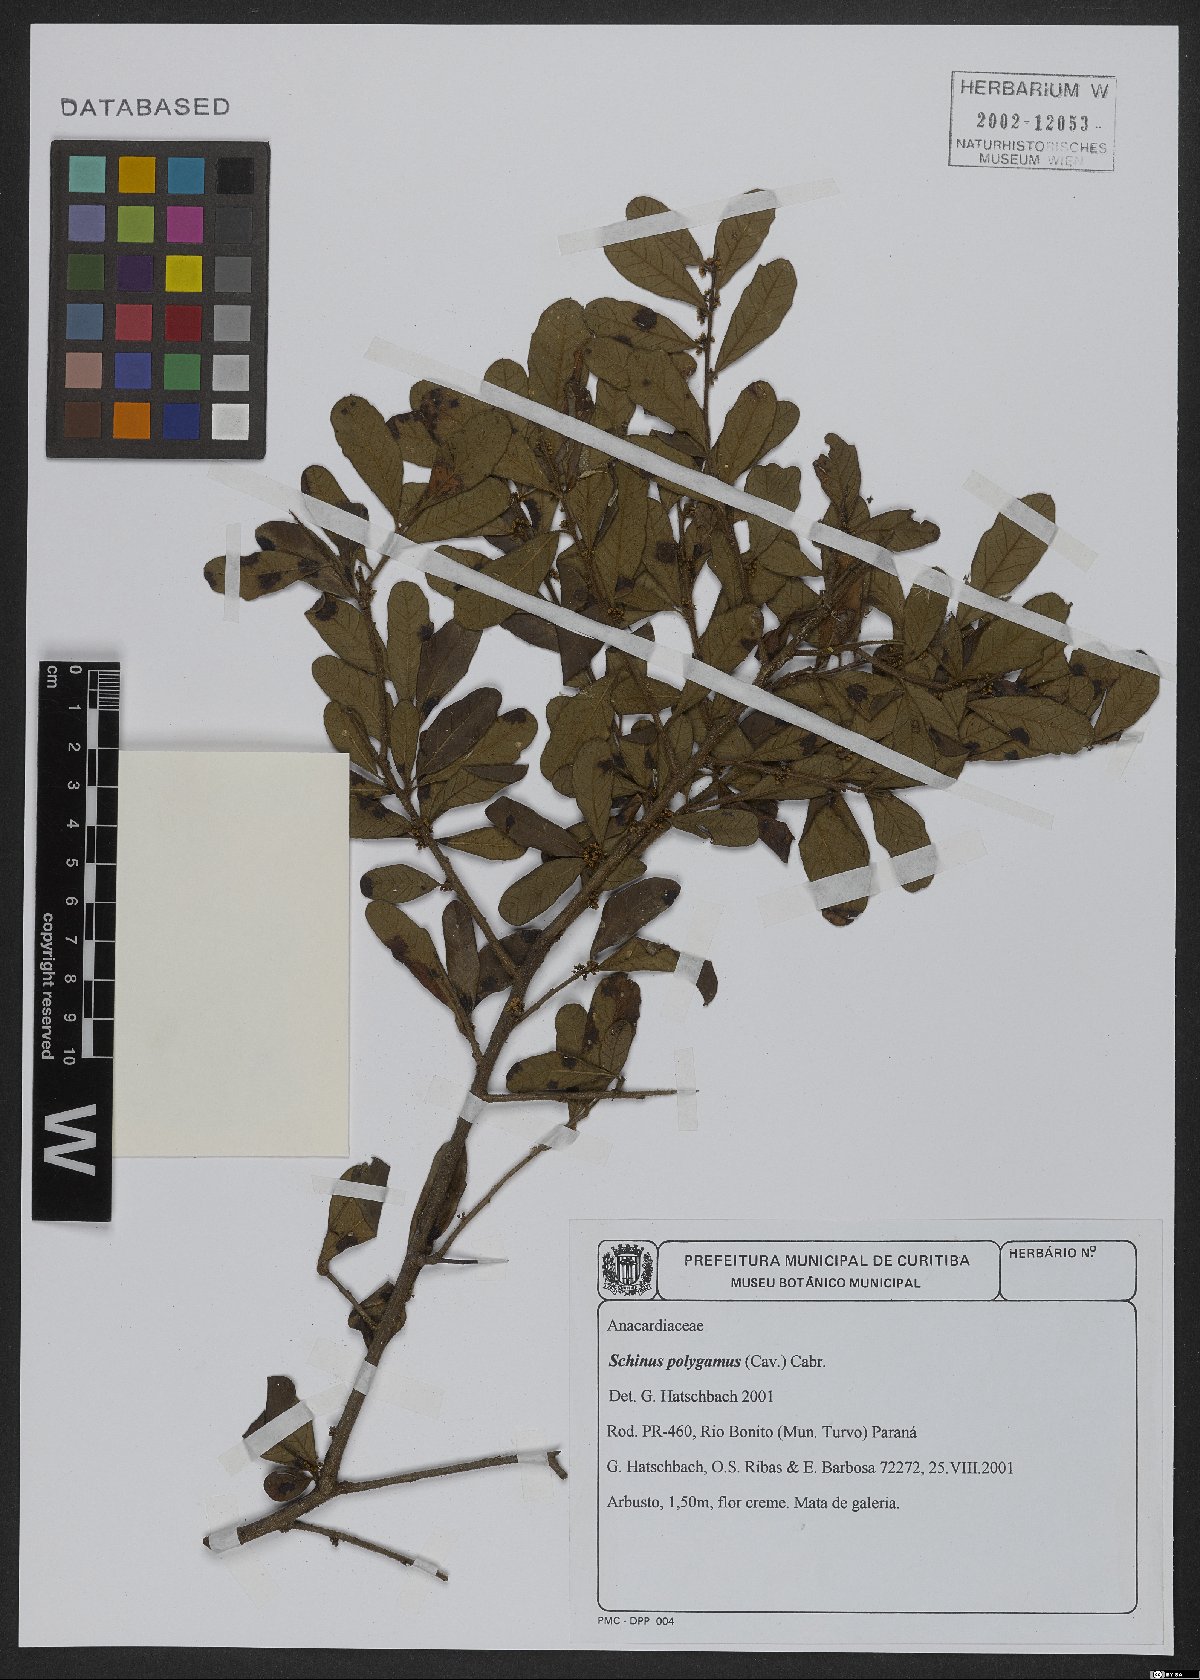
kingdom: Plantae
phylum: Tracheophyta
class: Magnoliopsida
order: Sapindales
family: Anacardiaceae
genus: Schinus
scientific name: Schinus polygama
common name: Hardee peppertree
